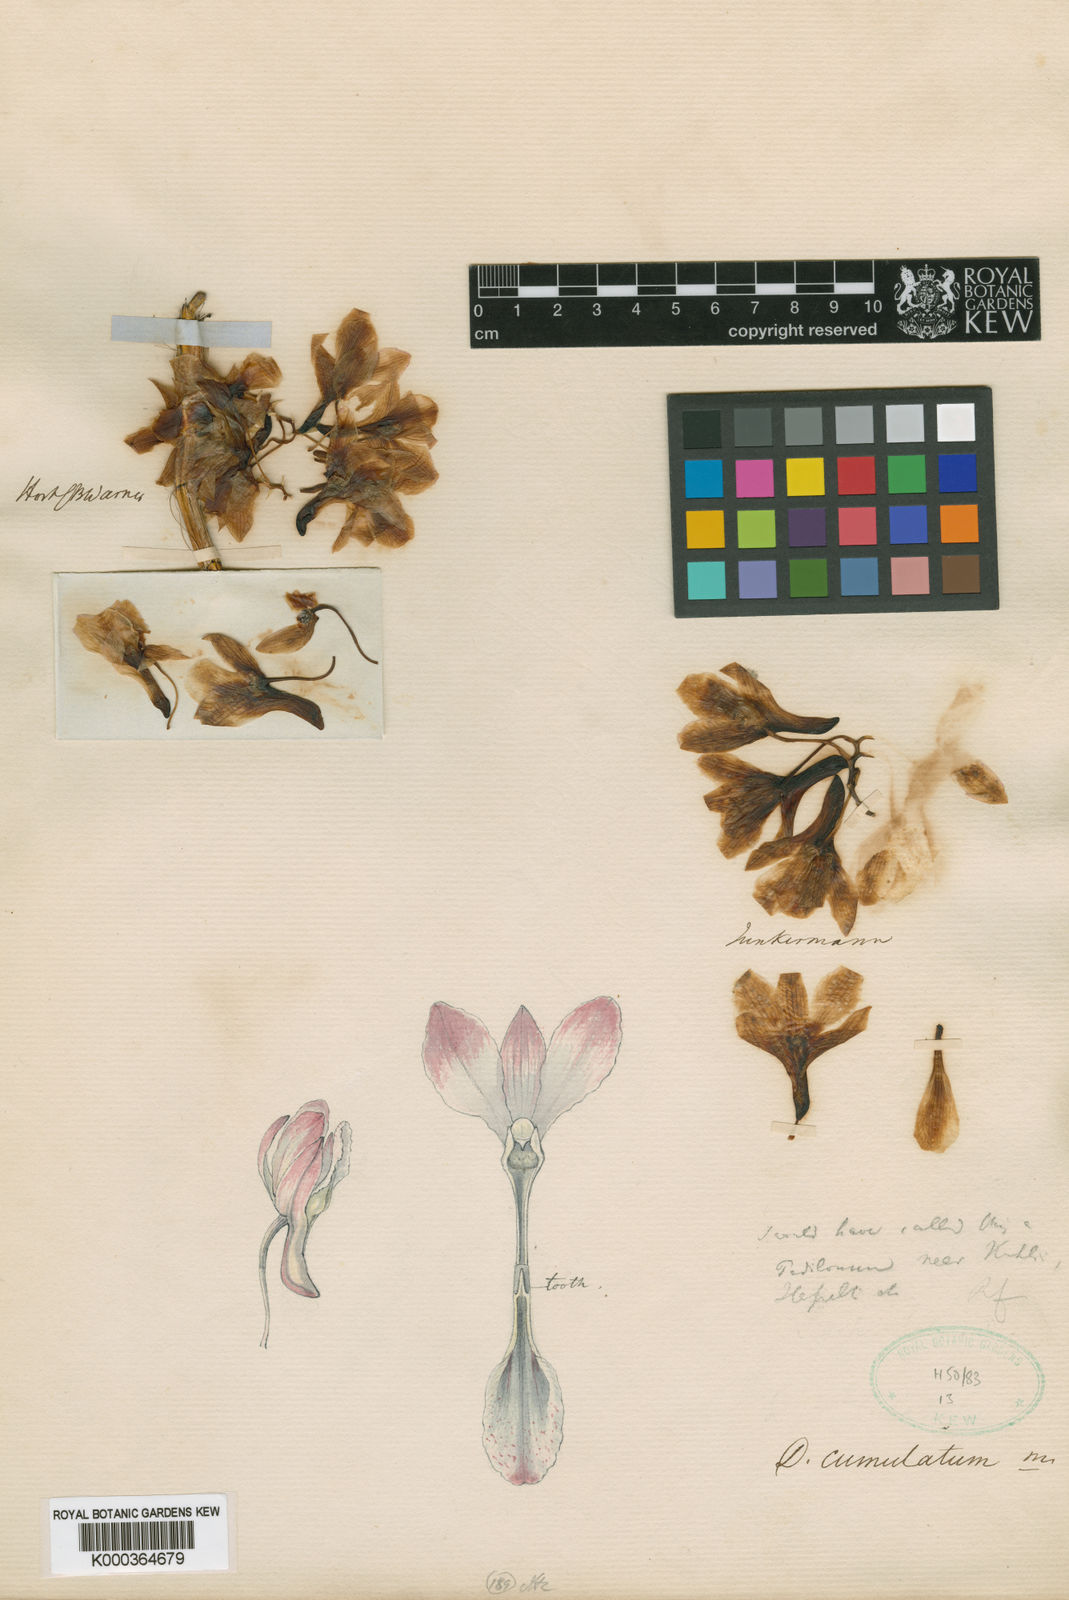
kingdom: Plantae
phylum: Tracheophyta
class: Liliopsida
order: Asparagales
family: Orchidaceae
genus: Dendrobium
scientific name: Dendrobium cumulatum
